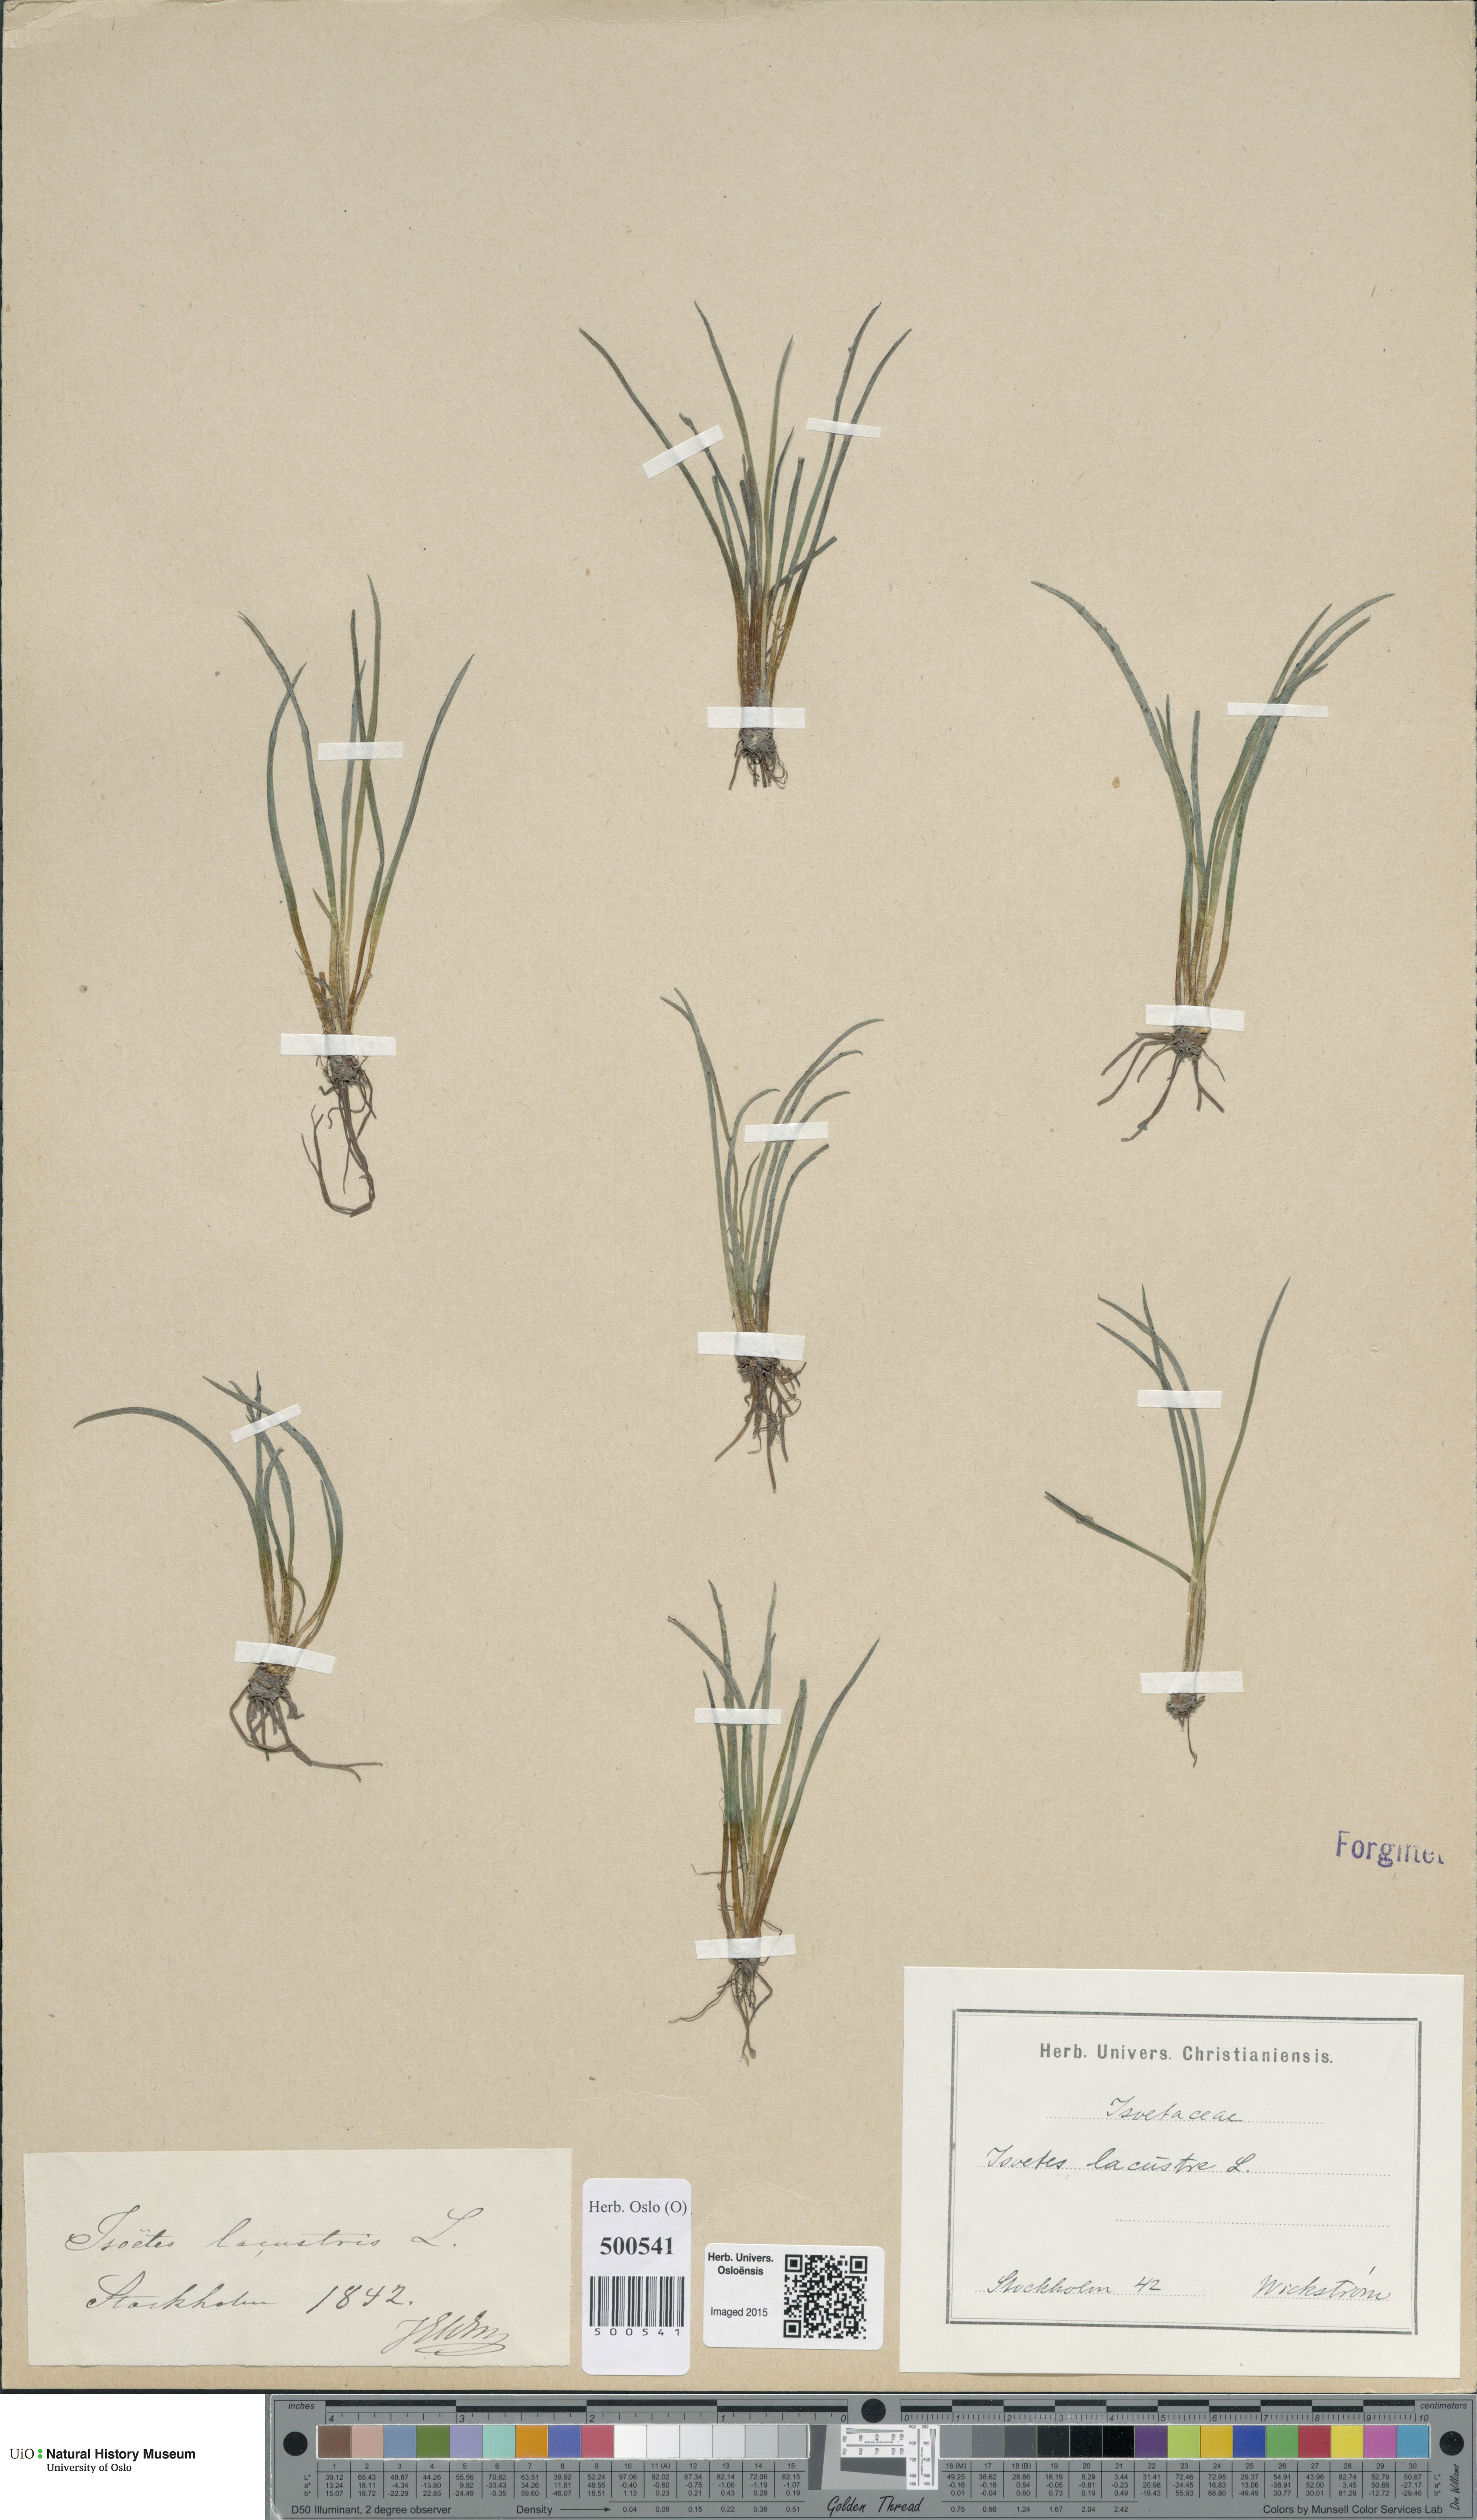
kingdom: Plantae
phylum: Tracheophyta
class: Lycopodiopsida
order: Isoetales
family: Isoetaceae
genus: Isoetes
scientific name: Isoetes lacustris
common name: Common quillwort
